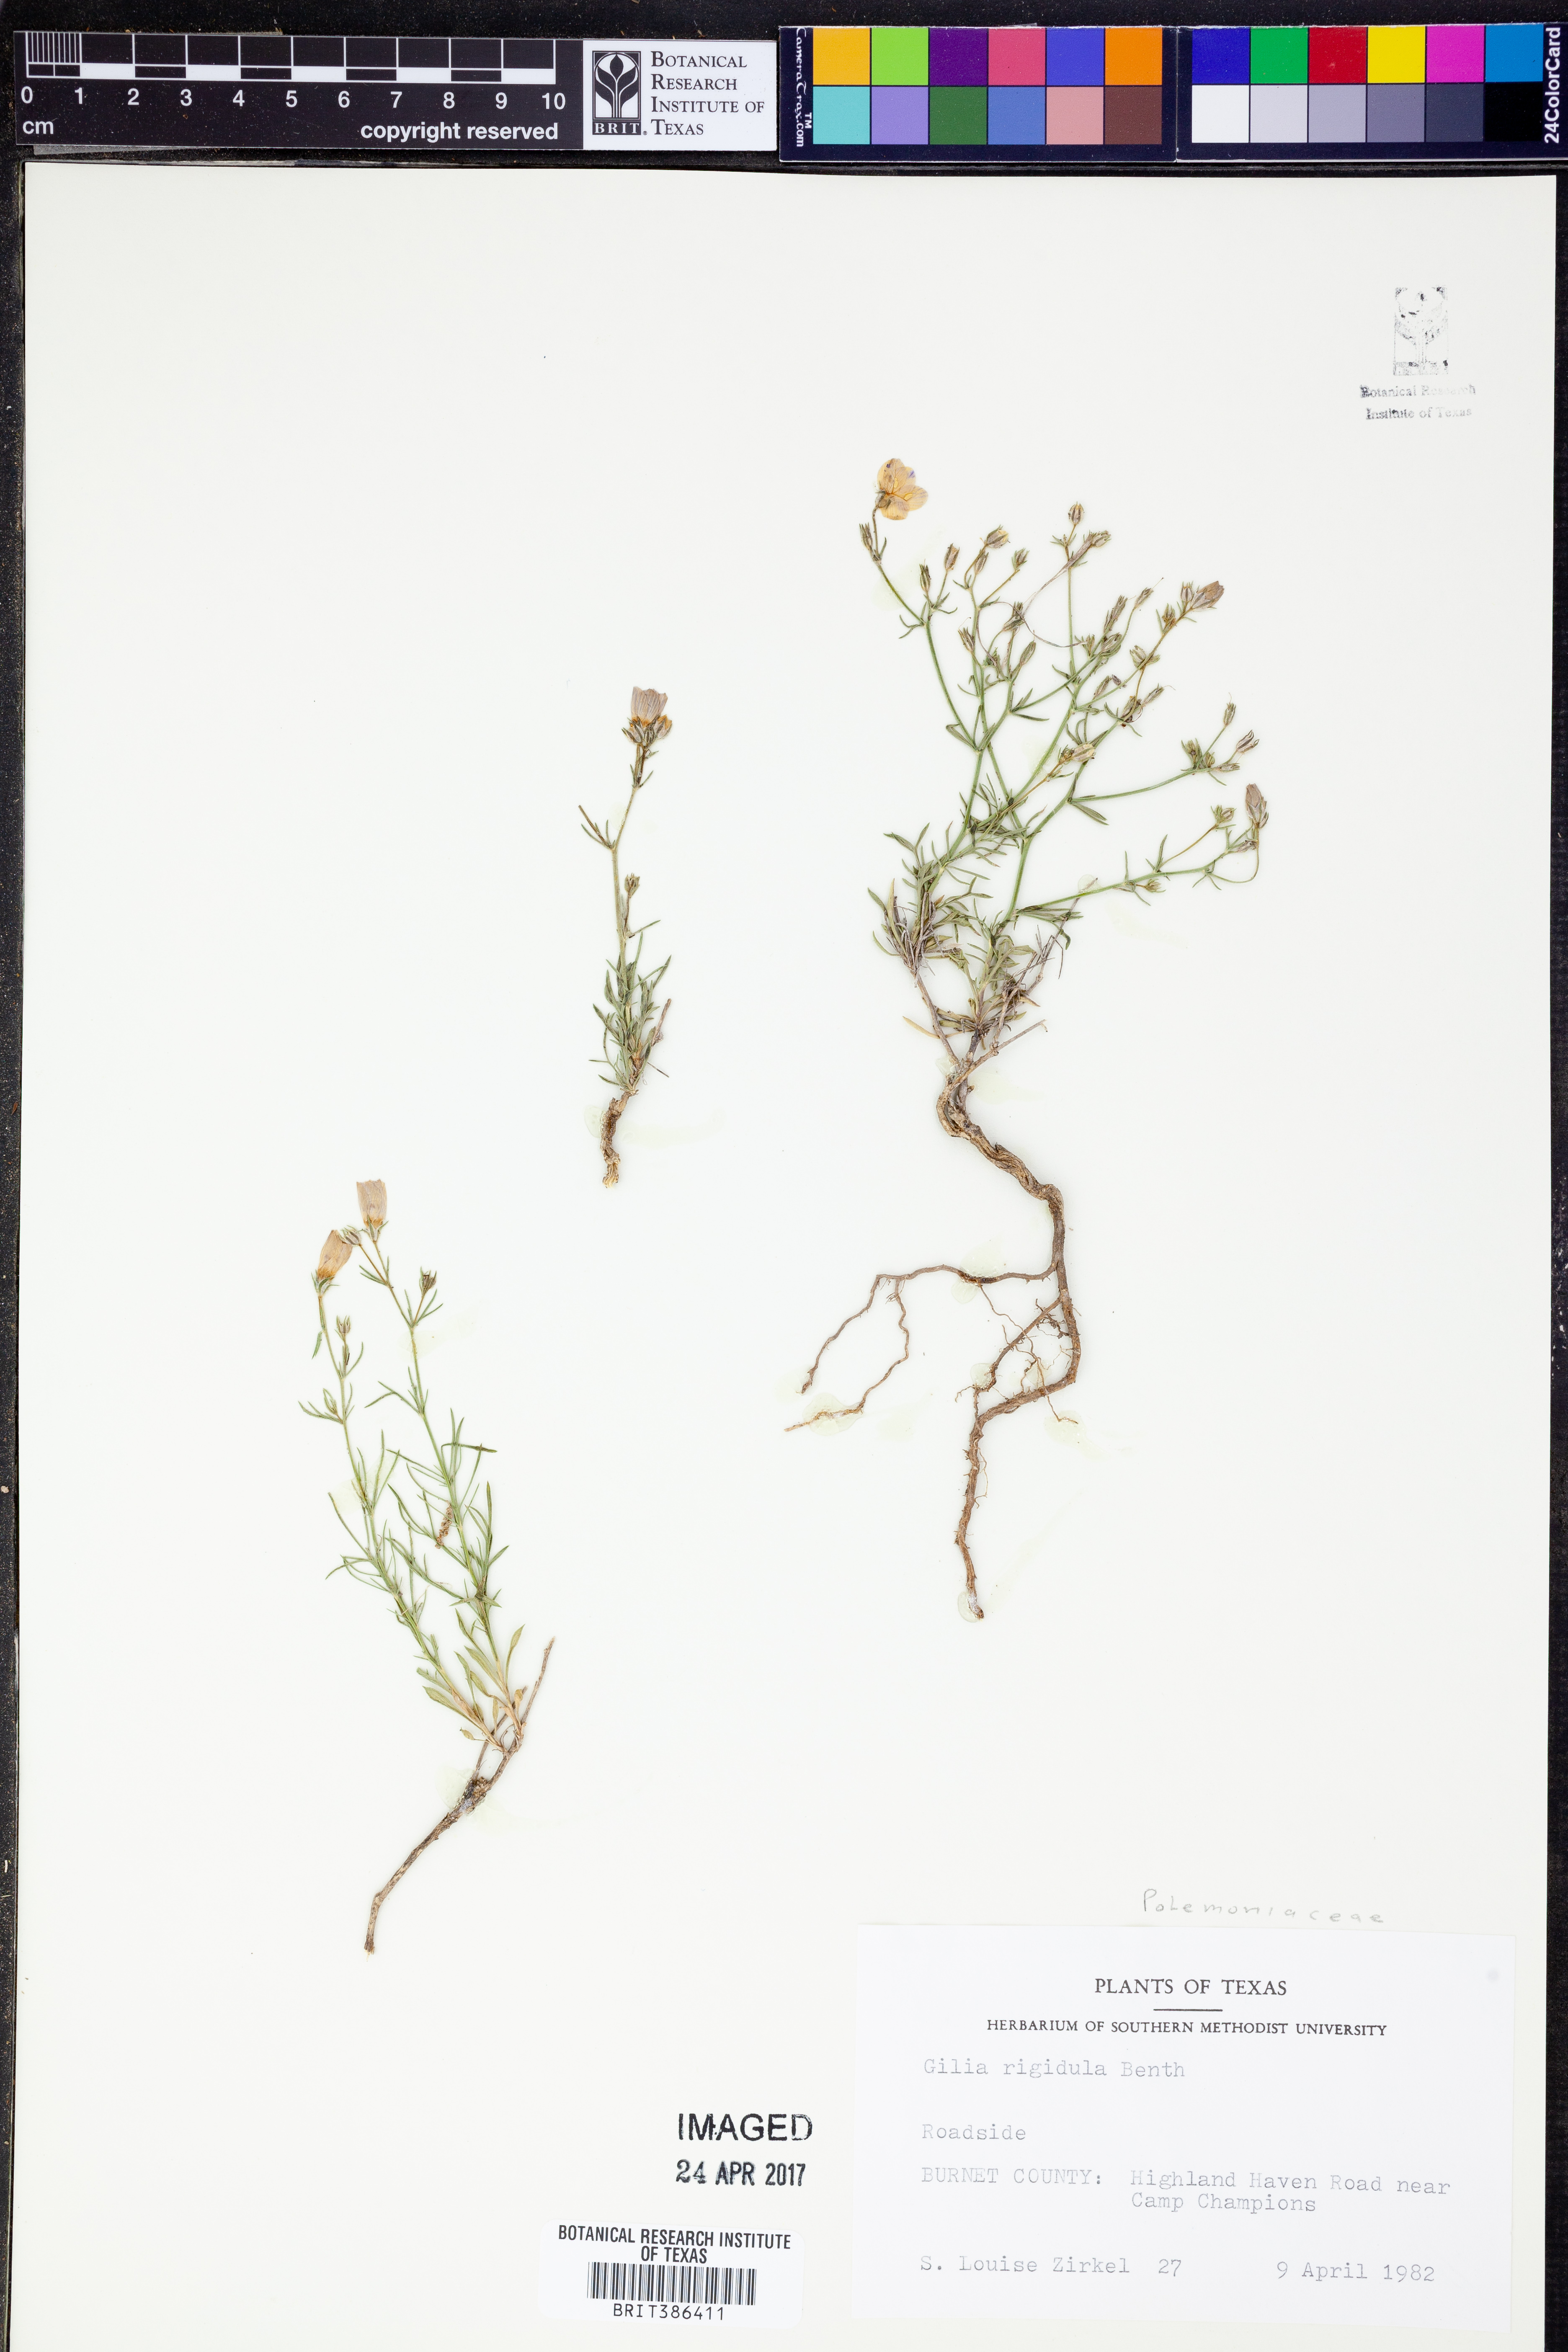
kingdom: Plantae
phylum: Tracheophyta
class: Magnoliopsida
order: Ericales
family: Polemoniaceae
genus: Giliastrum
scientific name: Giliastrum rigidulum
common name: Bluebowls
